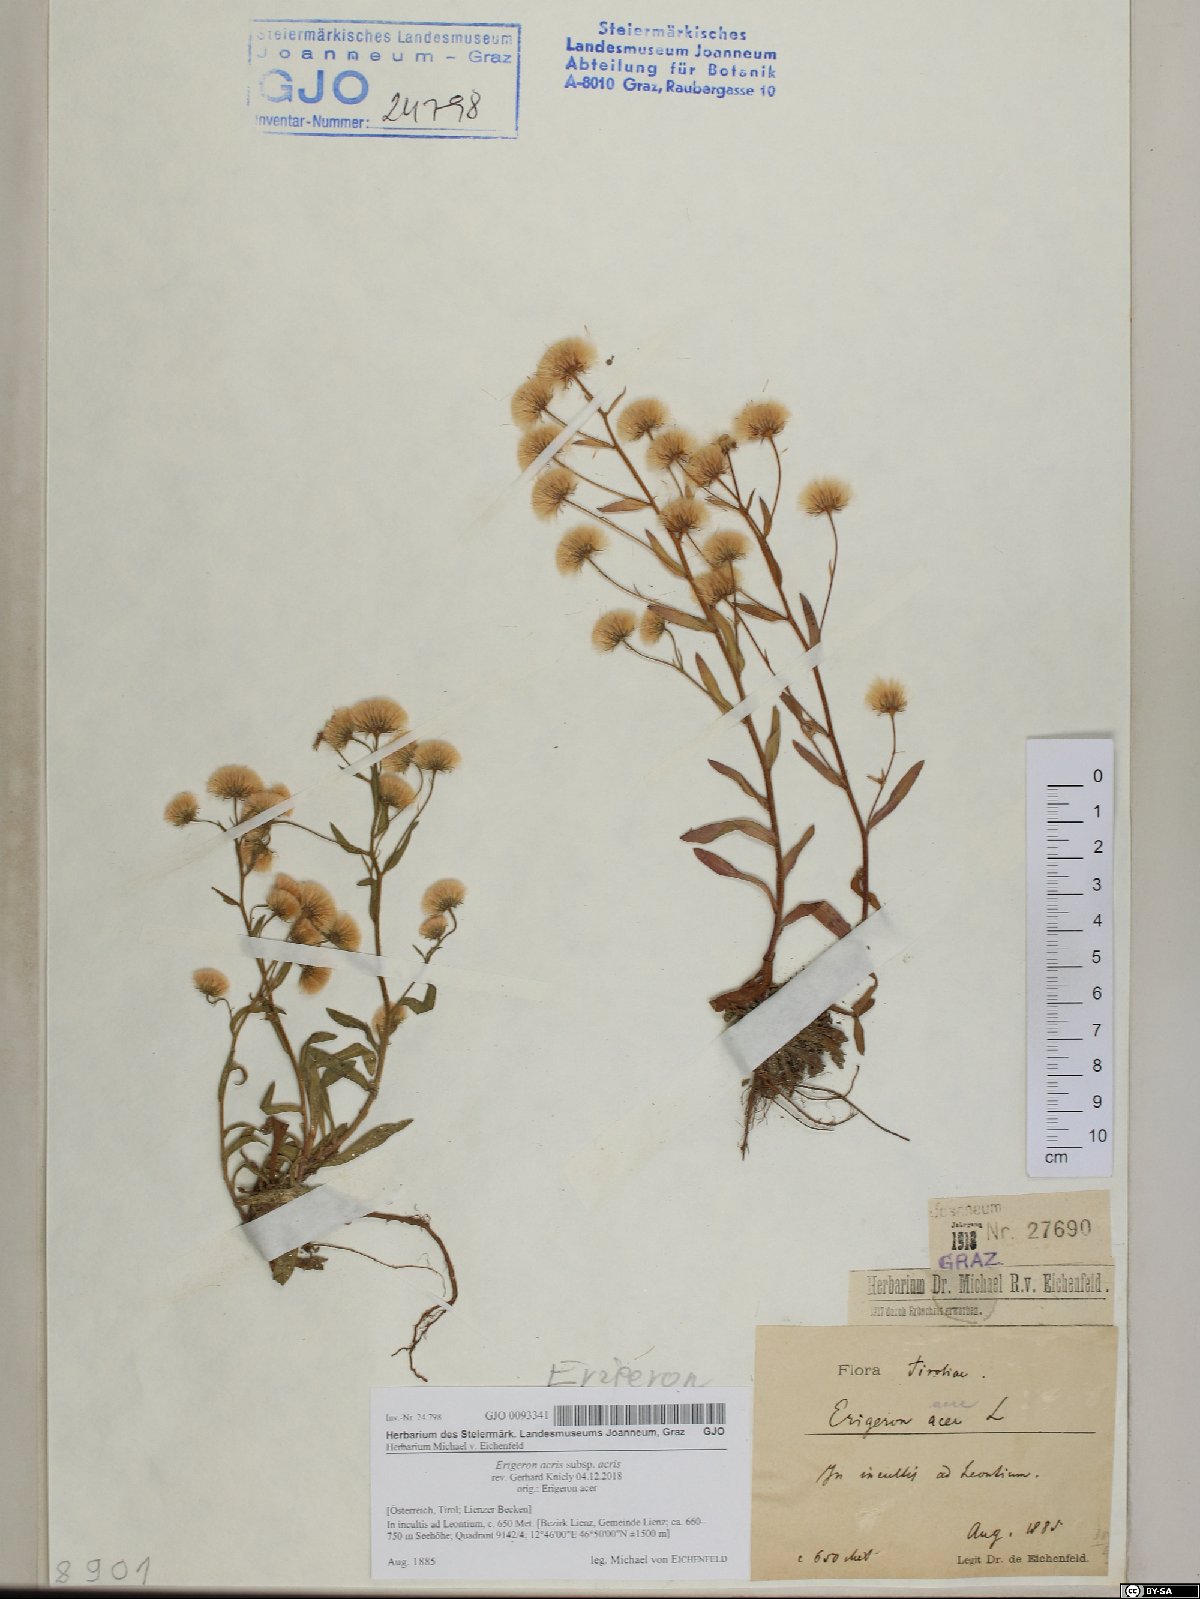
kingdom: Plantae
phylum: Tracheophyta
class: Magnoliopsida
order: Asterales
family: Asteraceae
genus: Erigeron
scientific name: Erigeron acris
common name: Blue fleabane
